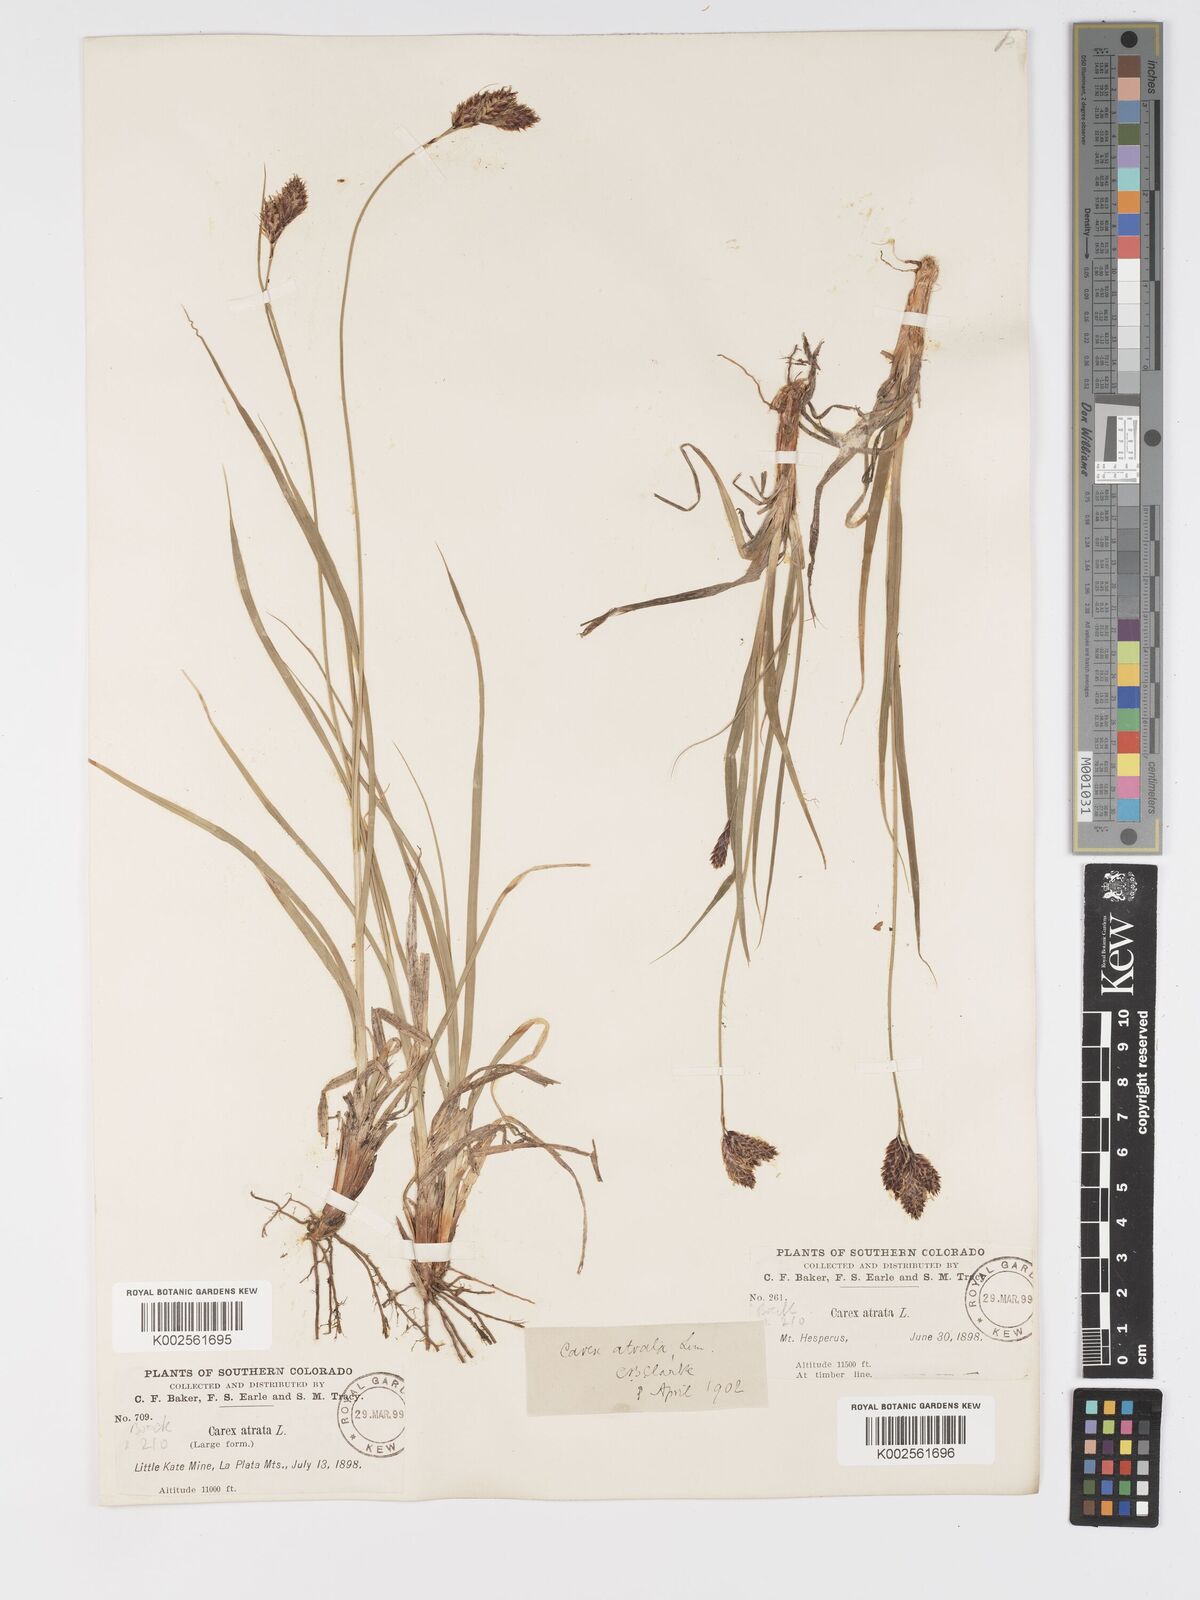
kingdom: Plantae
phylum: Tracheophyta
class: Liliopsida
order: Poales
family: Cyperaceae
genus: Carex
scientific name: Carex chalciolepis
